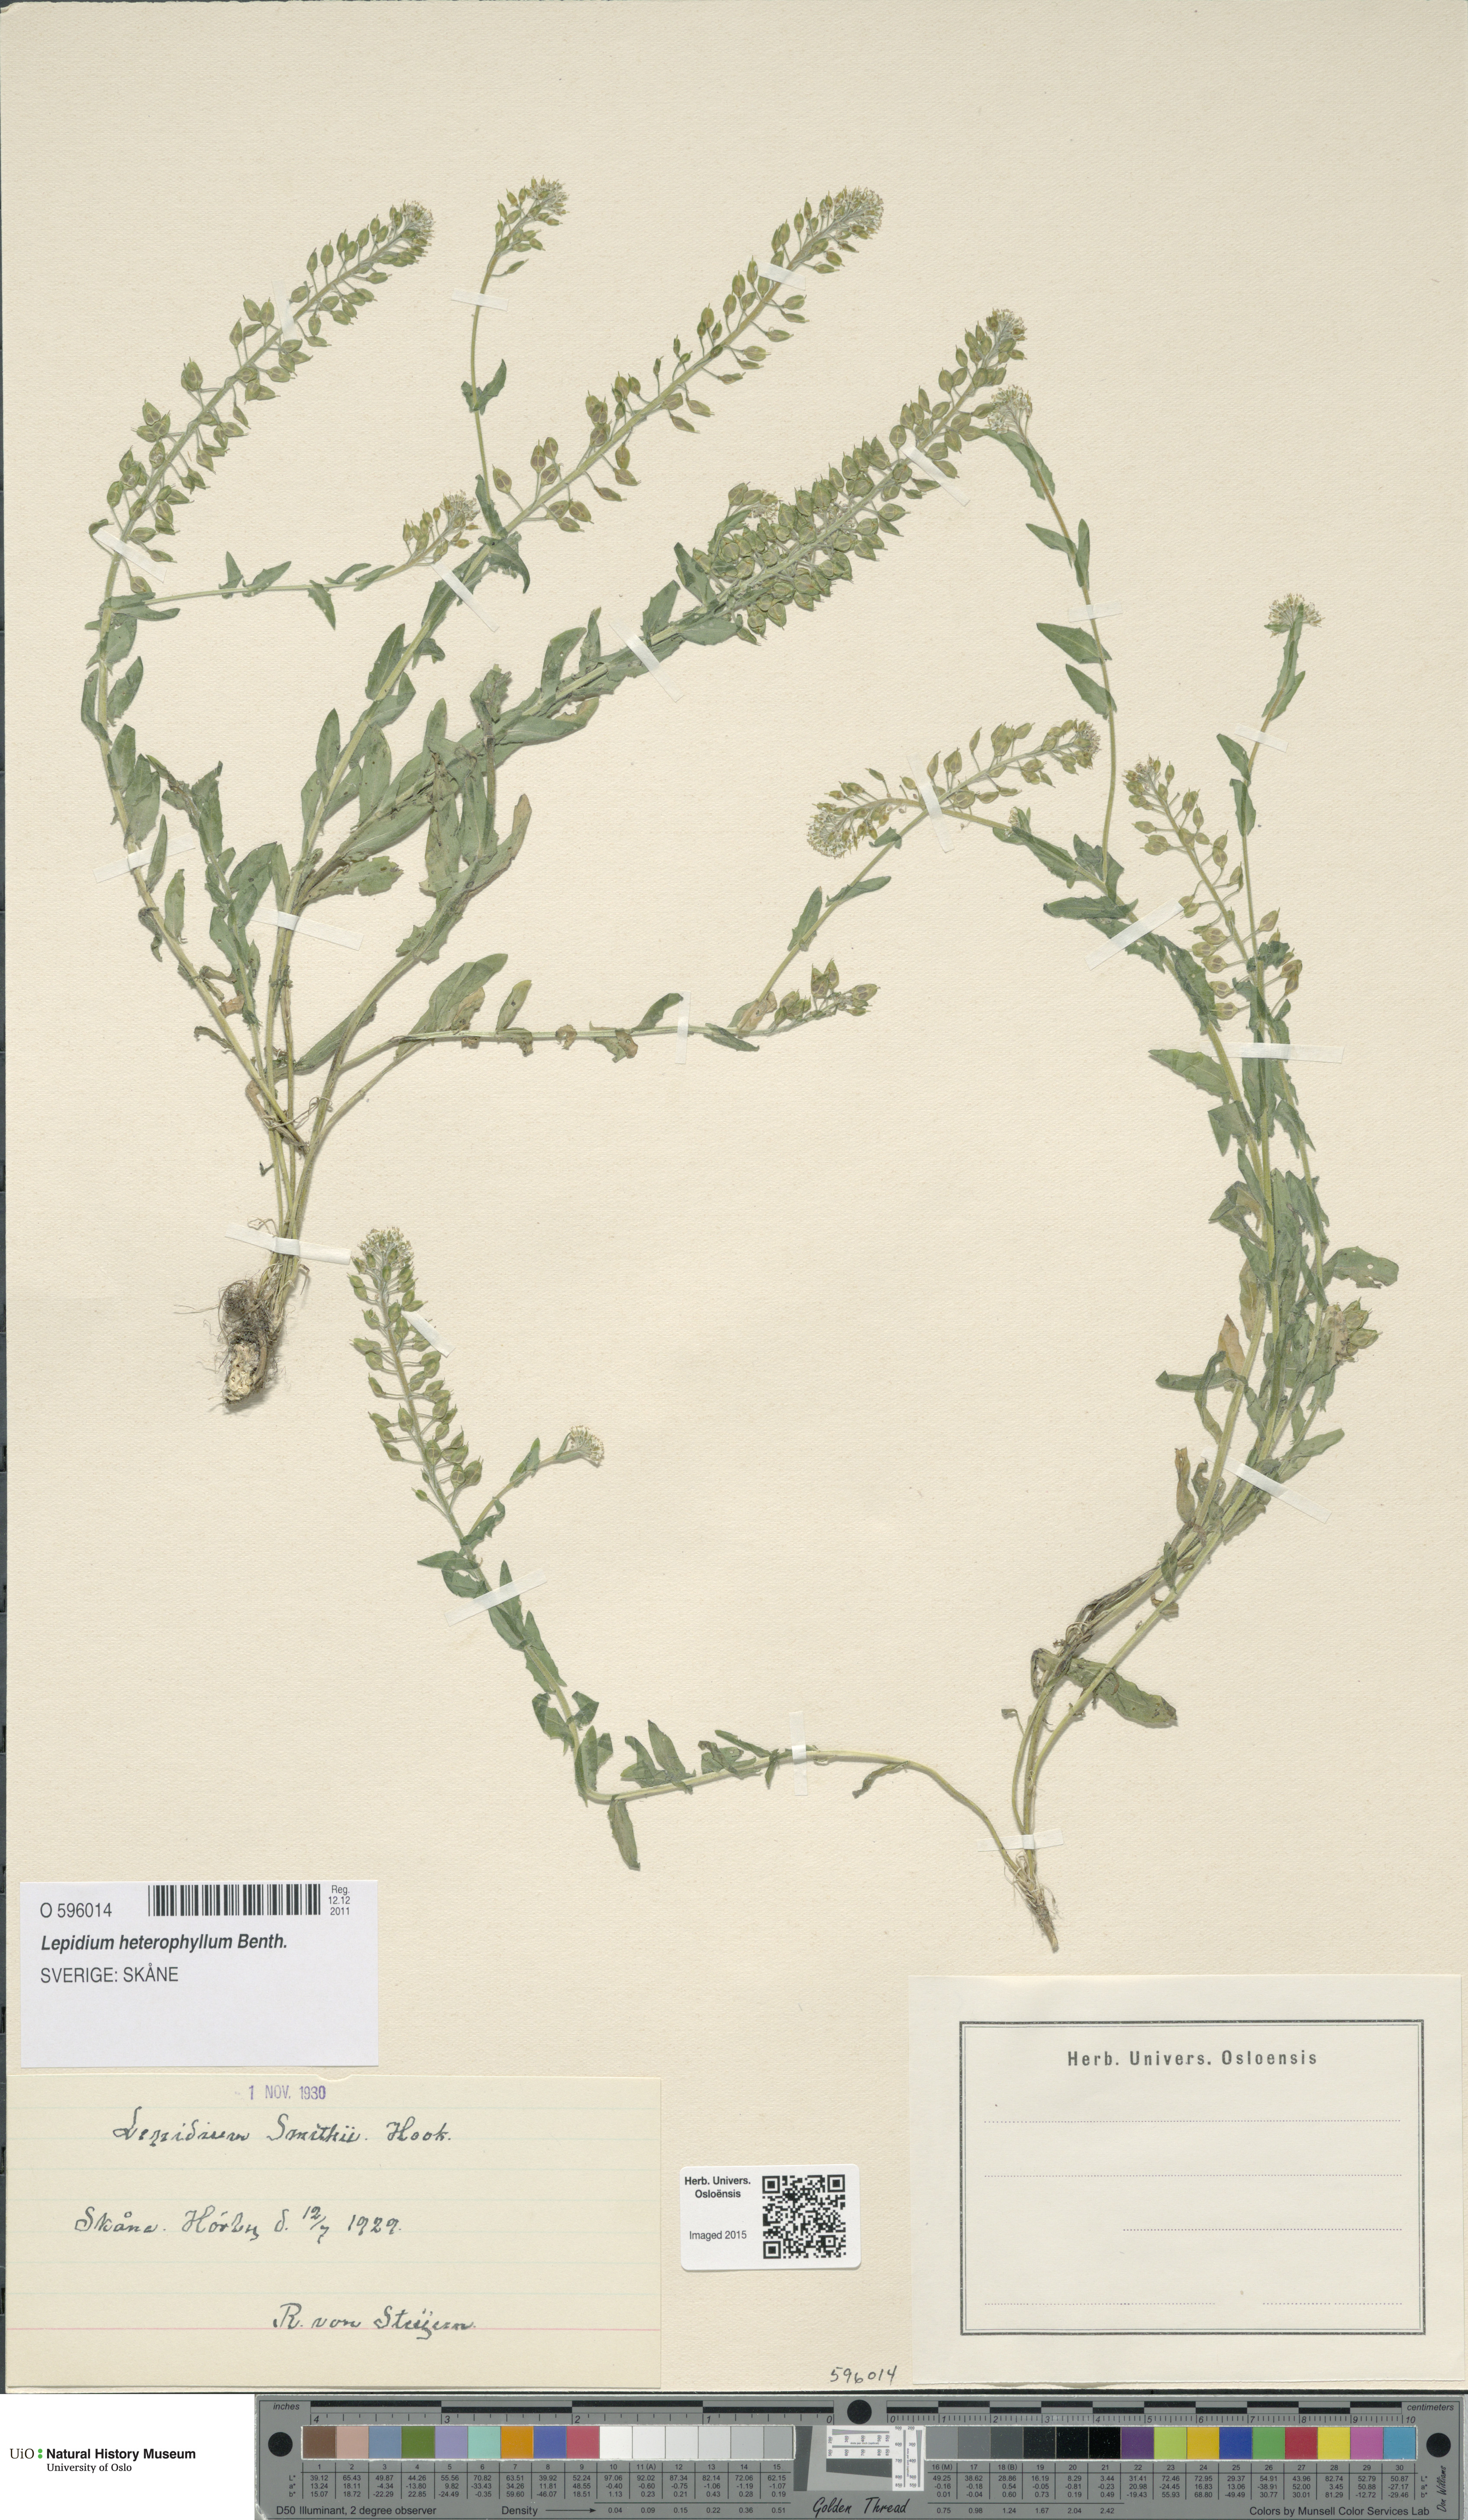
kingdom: Plantae
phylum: Tracheophyta
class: Magnoliopsida
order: Brassicales
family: Brassicaceae
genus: Lepidium
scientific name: Lepidium heterophyllum
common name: Smith's pepperwort
